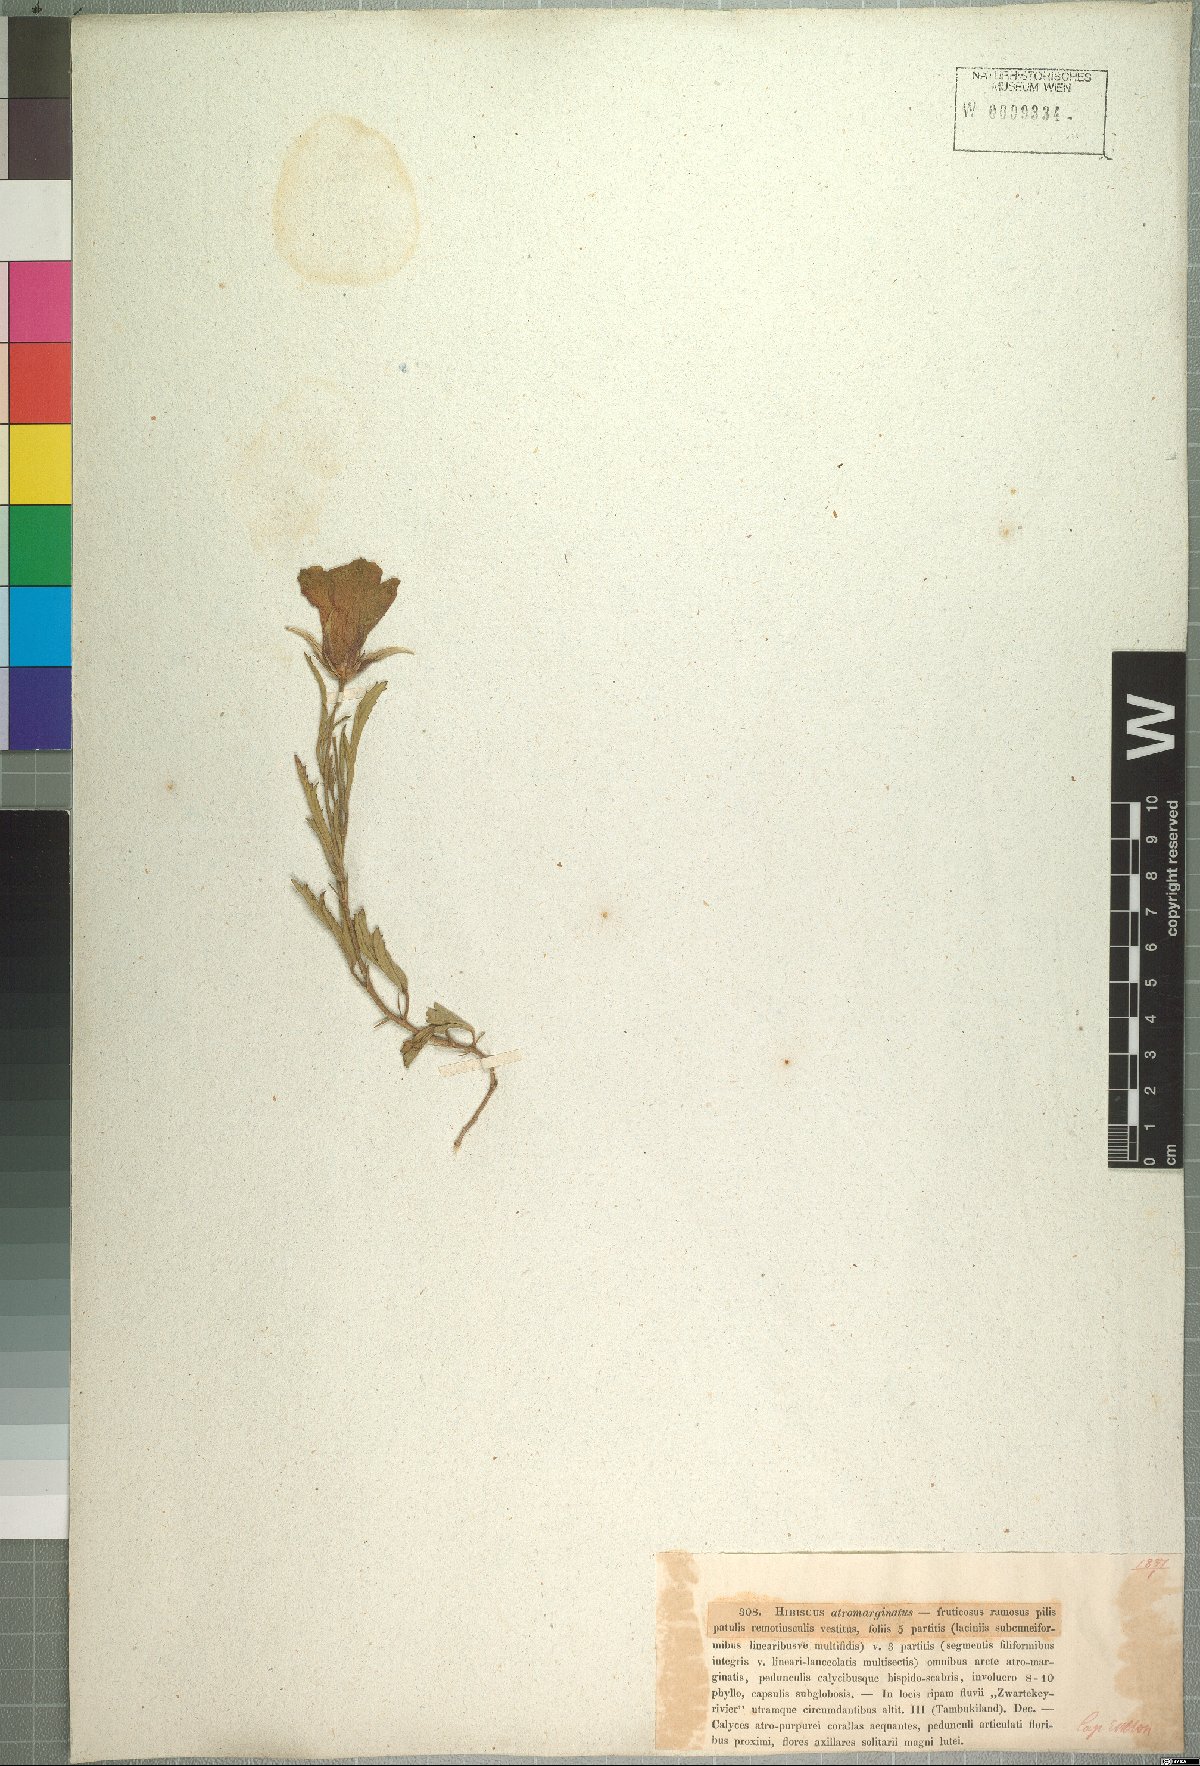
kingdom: Plantae
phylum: Tracheophyta
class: Magnoliopsida
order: Malvales
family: Malvaceae
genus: Hibiscus
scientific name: Hibiscus pusillus
